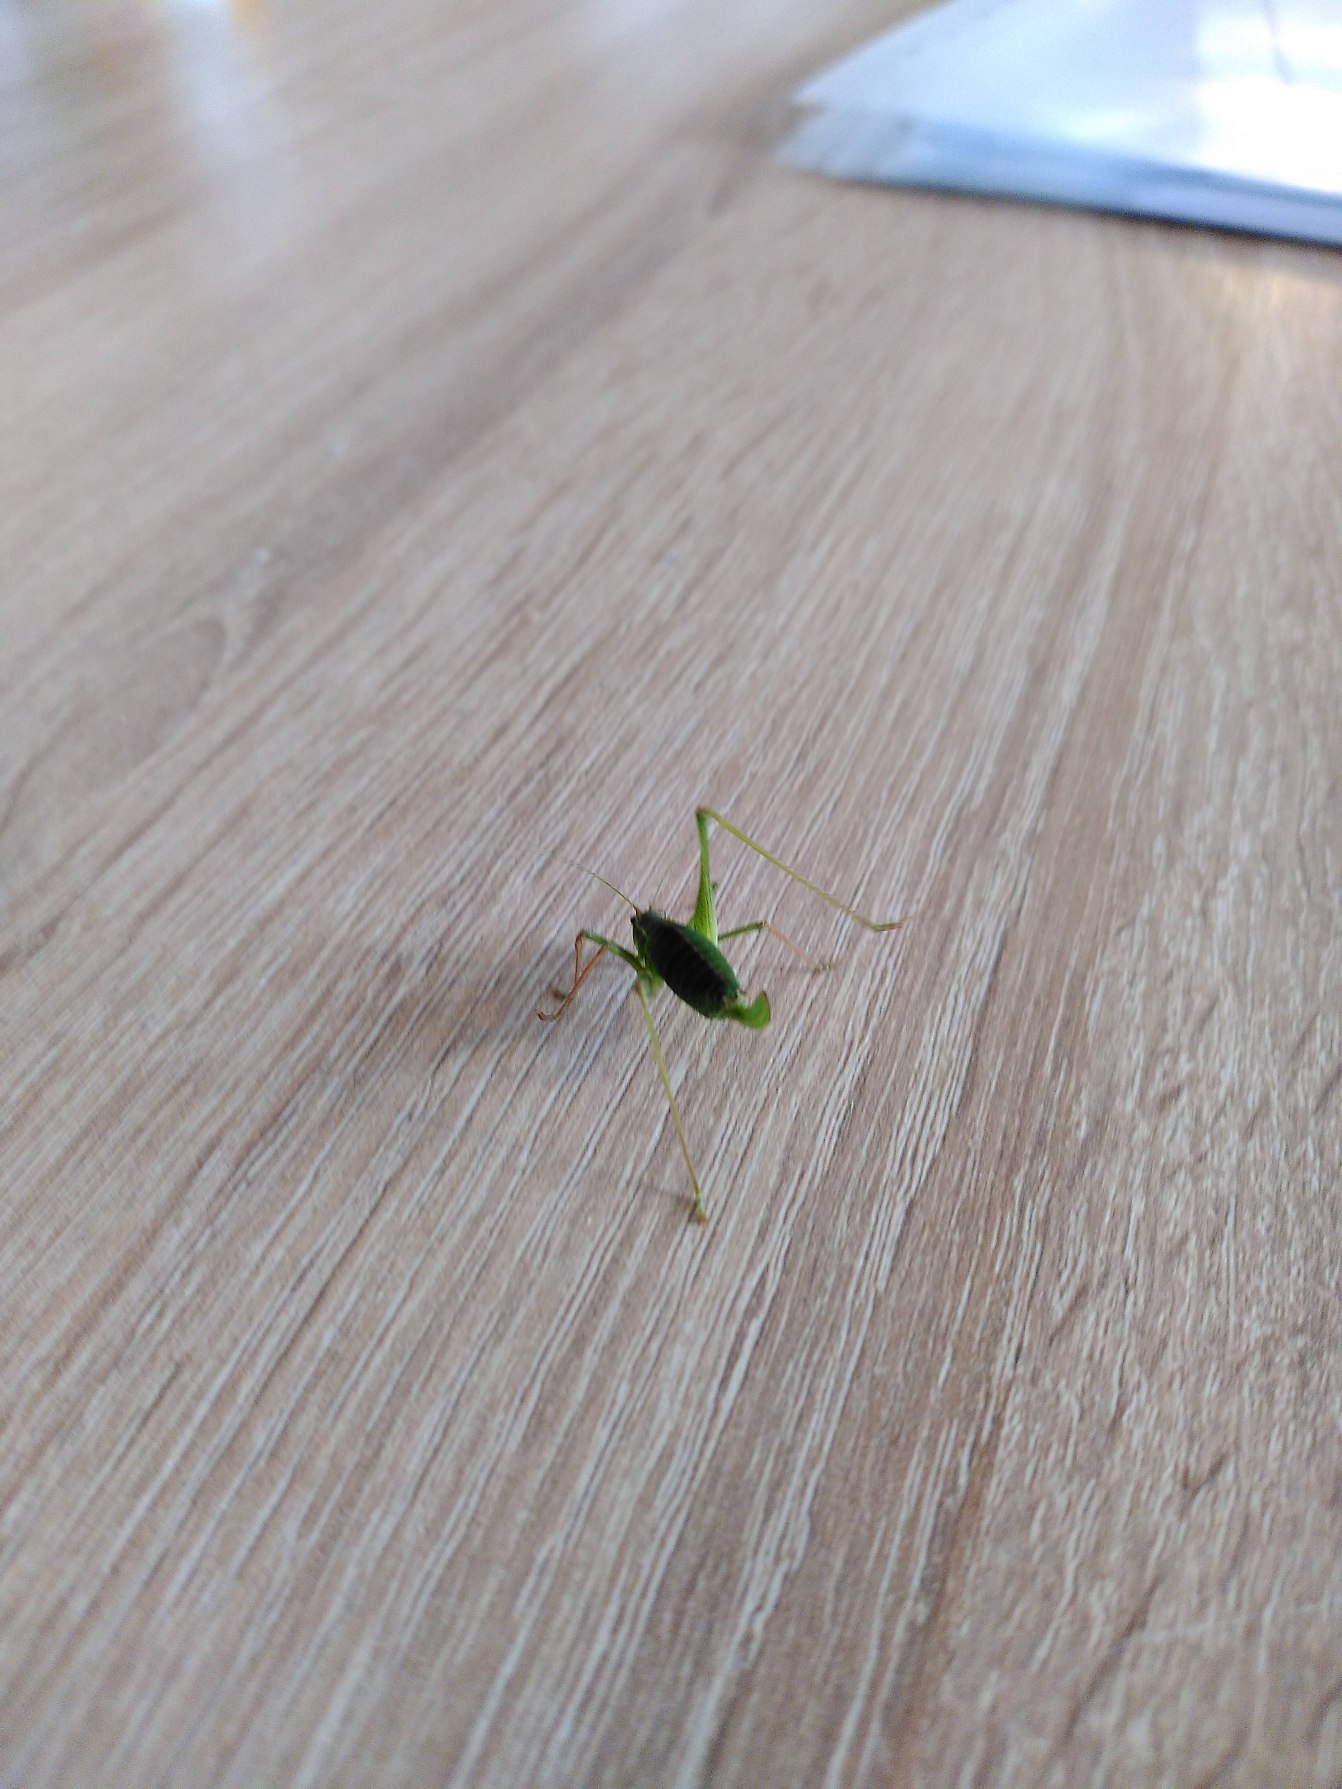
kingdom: Animalia
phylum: Arthropoda
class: Insecta
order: Orthoptera
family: Tettigoniidae
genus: Leptophyes
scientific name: Leptophyes punctatissima
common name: Krumknivgræshoppe
